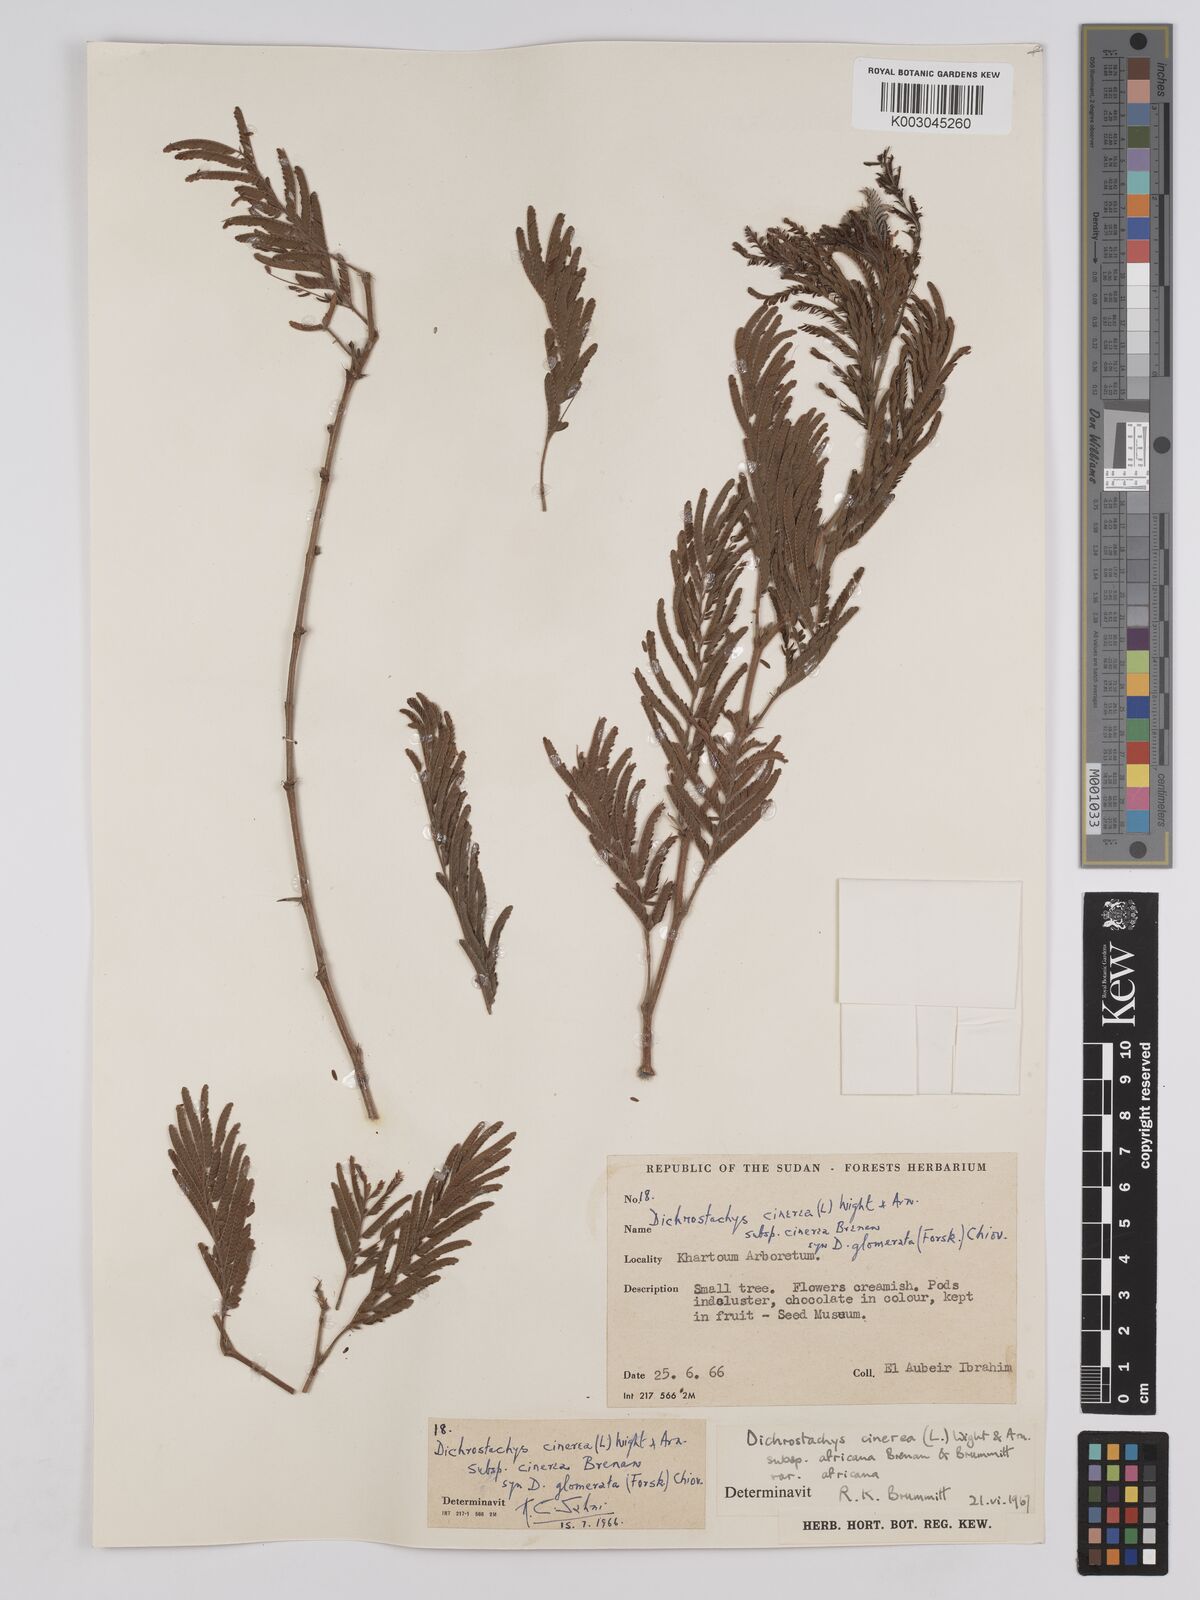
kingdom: Plantae
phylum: Tracheophyta
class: Magnoliopsida
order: Fabales
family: Fabaceae
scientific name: Fabaceae
